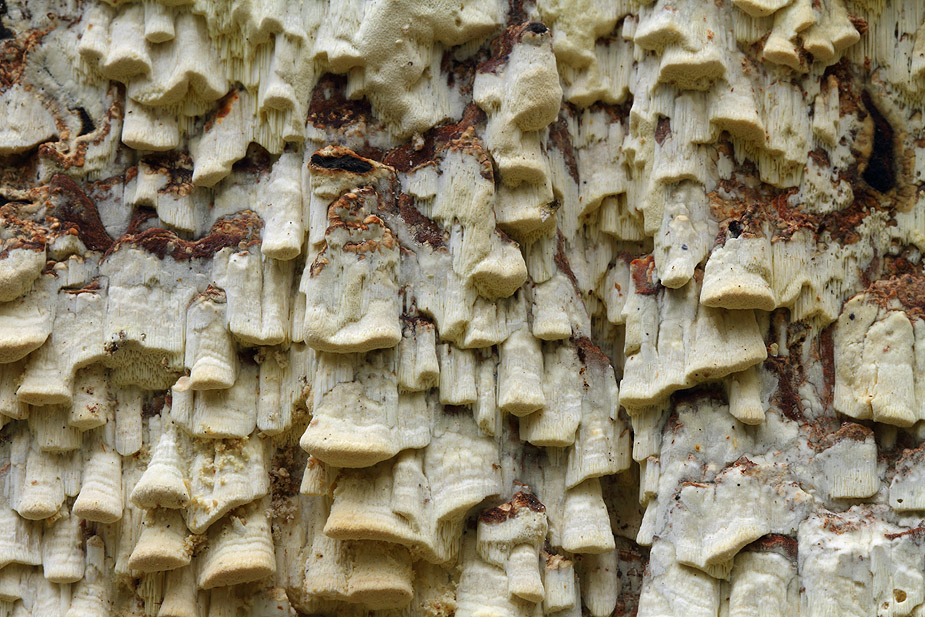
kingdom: Fungi
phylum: Basidiomycota
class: Agaricomycetes
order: Polyporales
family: Fomitopsidaceae
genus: Daedalea
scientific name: Daedalea xantha
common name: gul sejporesvamp
